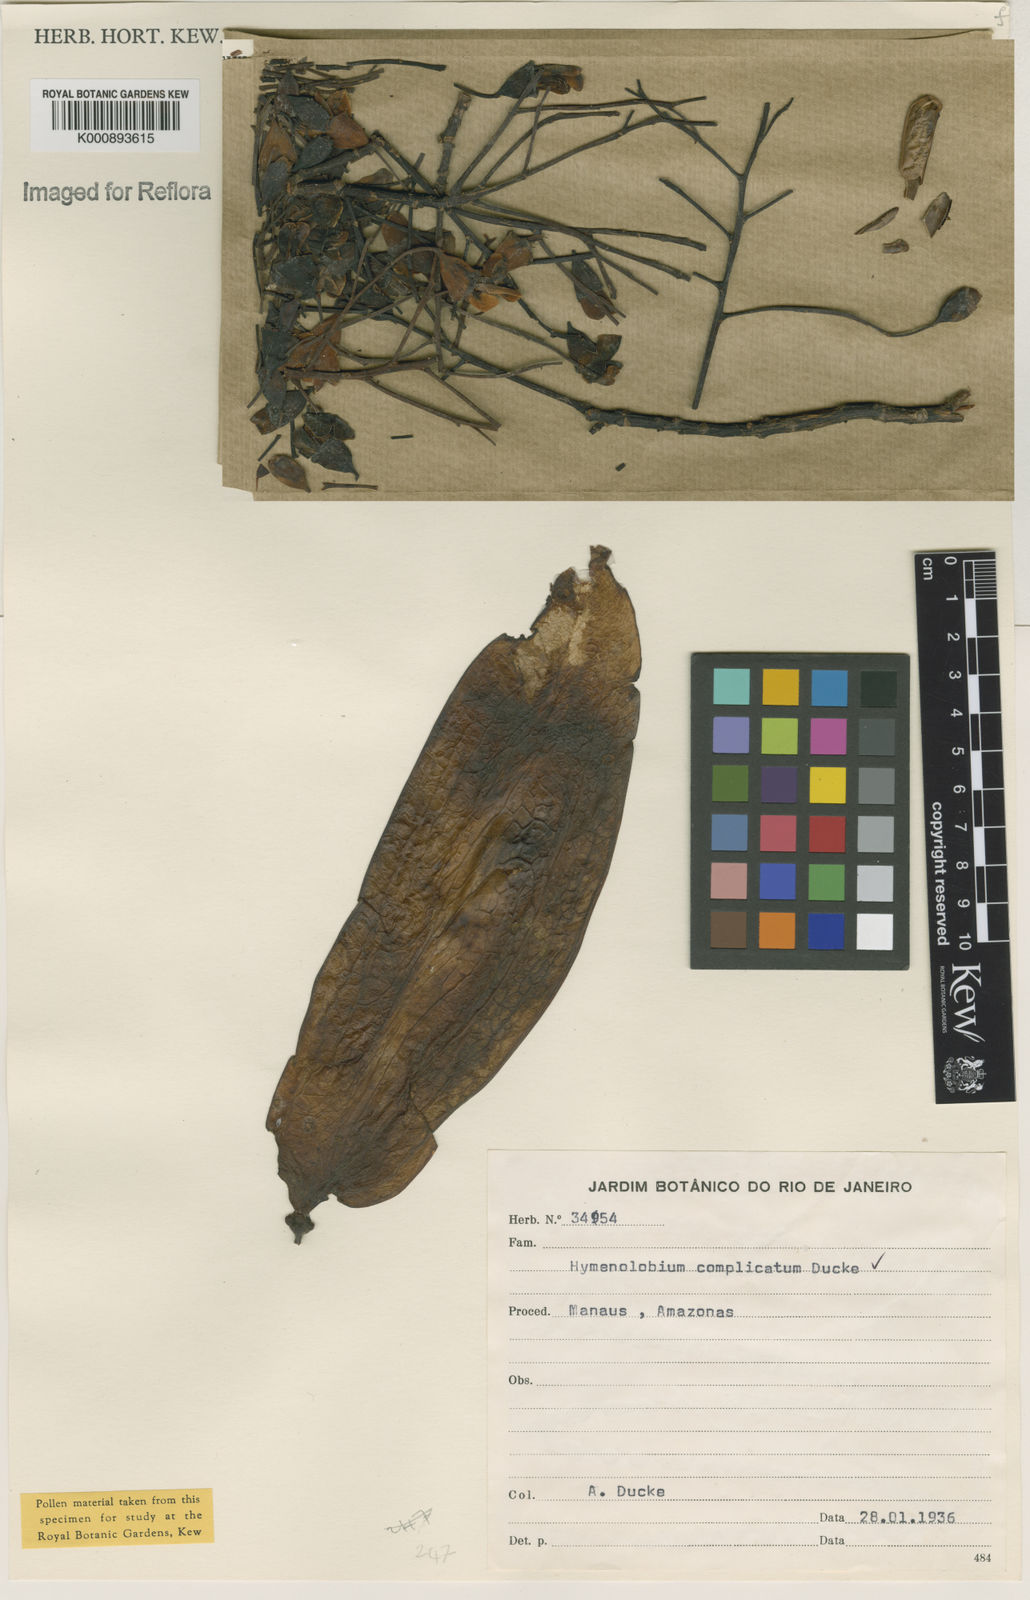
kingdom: Plantae
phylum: Tracheophyta
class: Magnoliopsida
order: Fabales
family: Fabaceae
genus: Hymenolobium
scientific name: Hymenolobium nitidum
